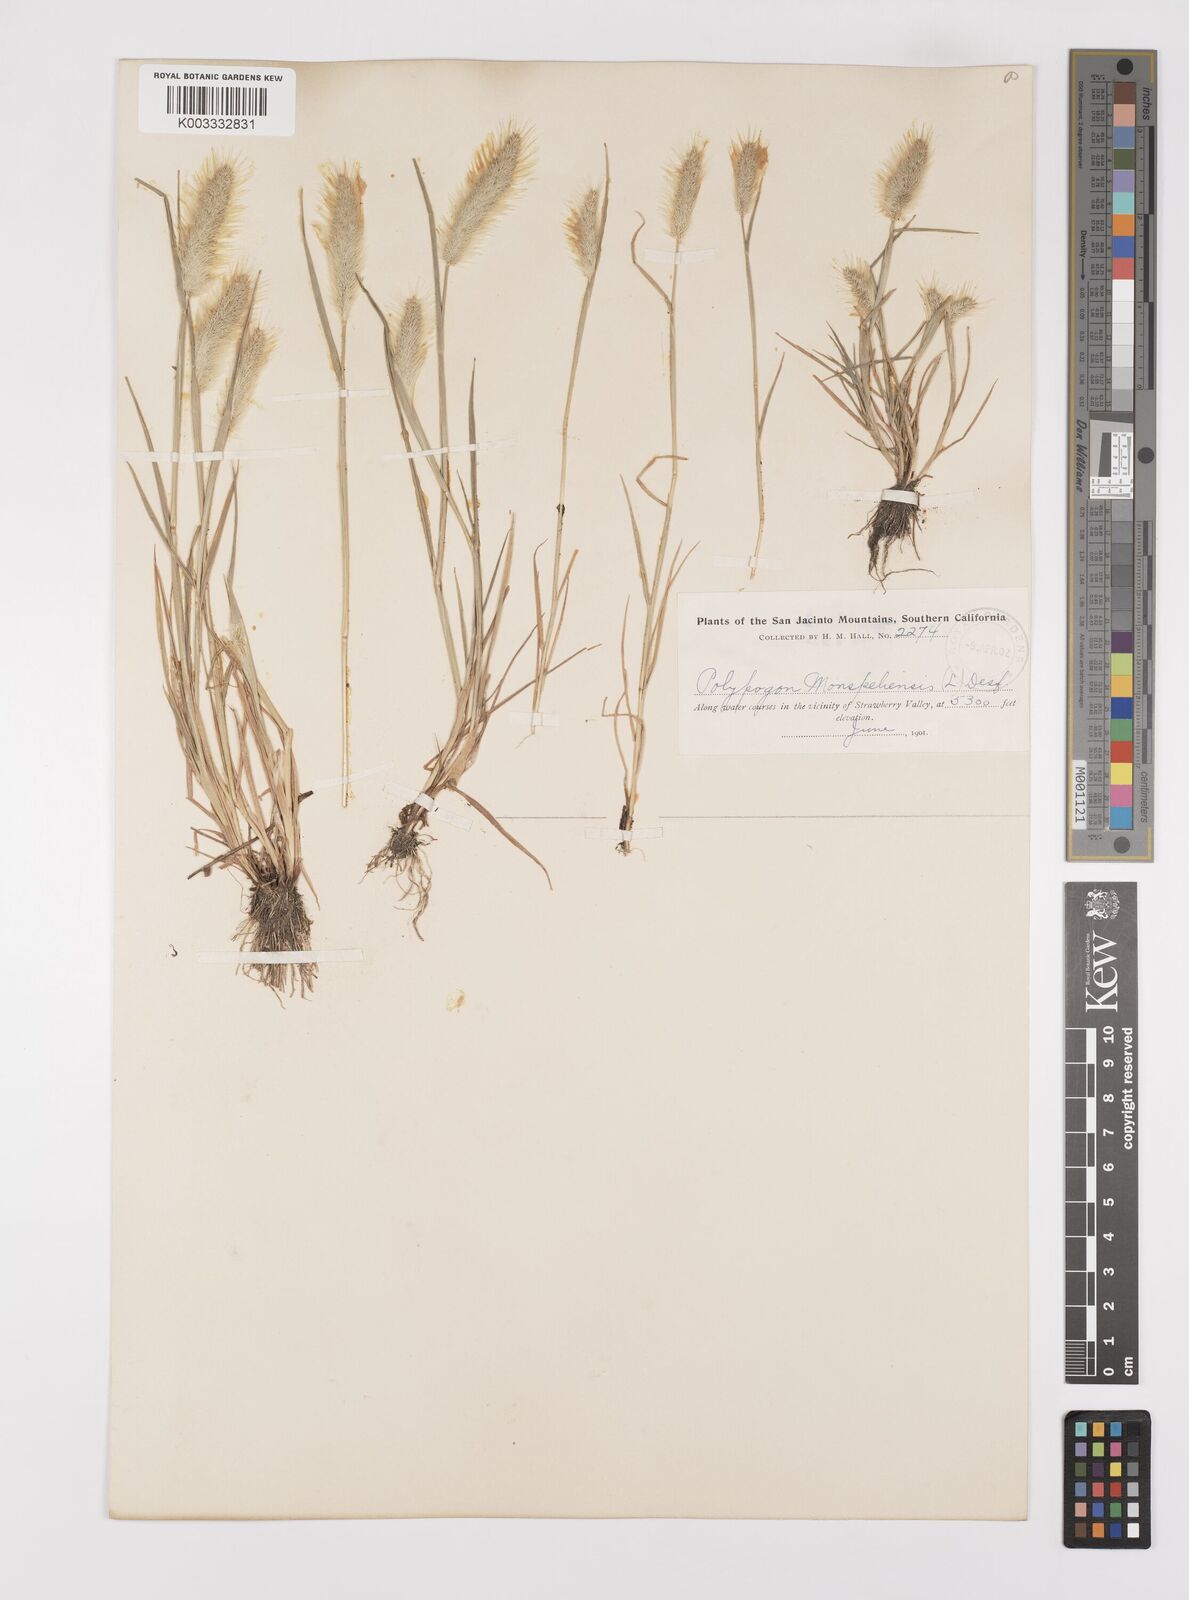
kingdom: Plantae
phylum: Tracheophyta
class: Liliopsida
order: Poales
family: Poaceae
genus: Polypogon
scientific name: Polypogon monspeliensis
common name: Annual rabbitsfoot grass
